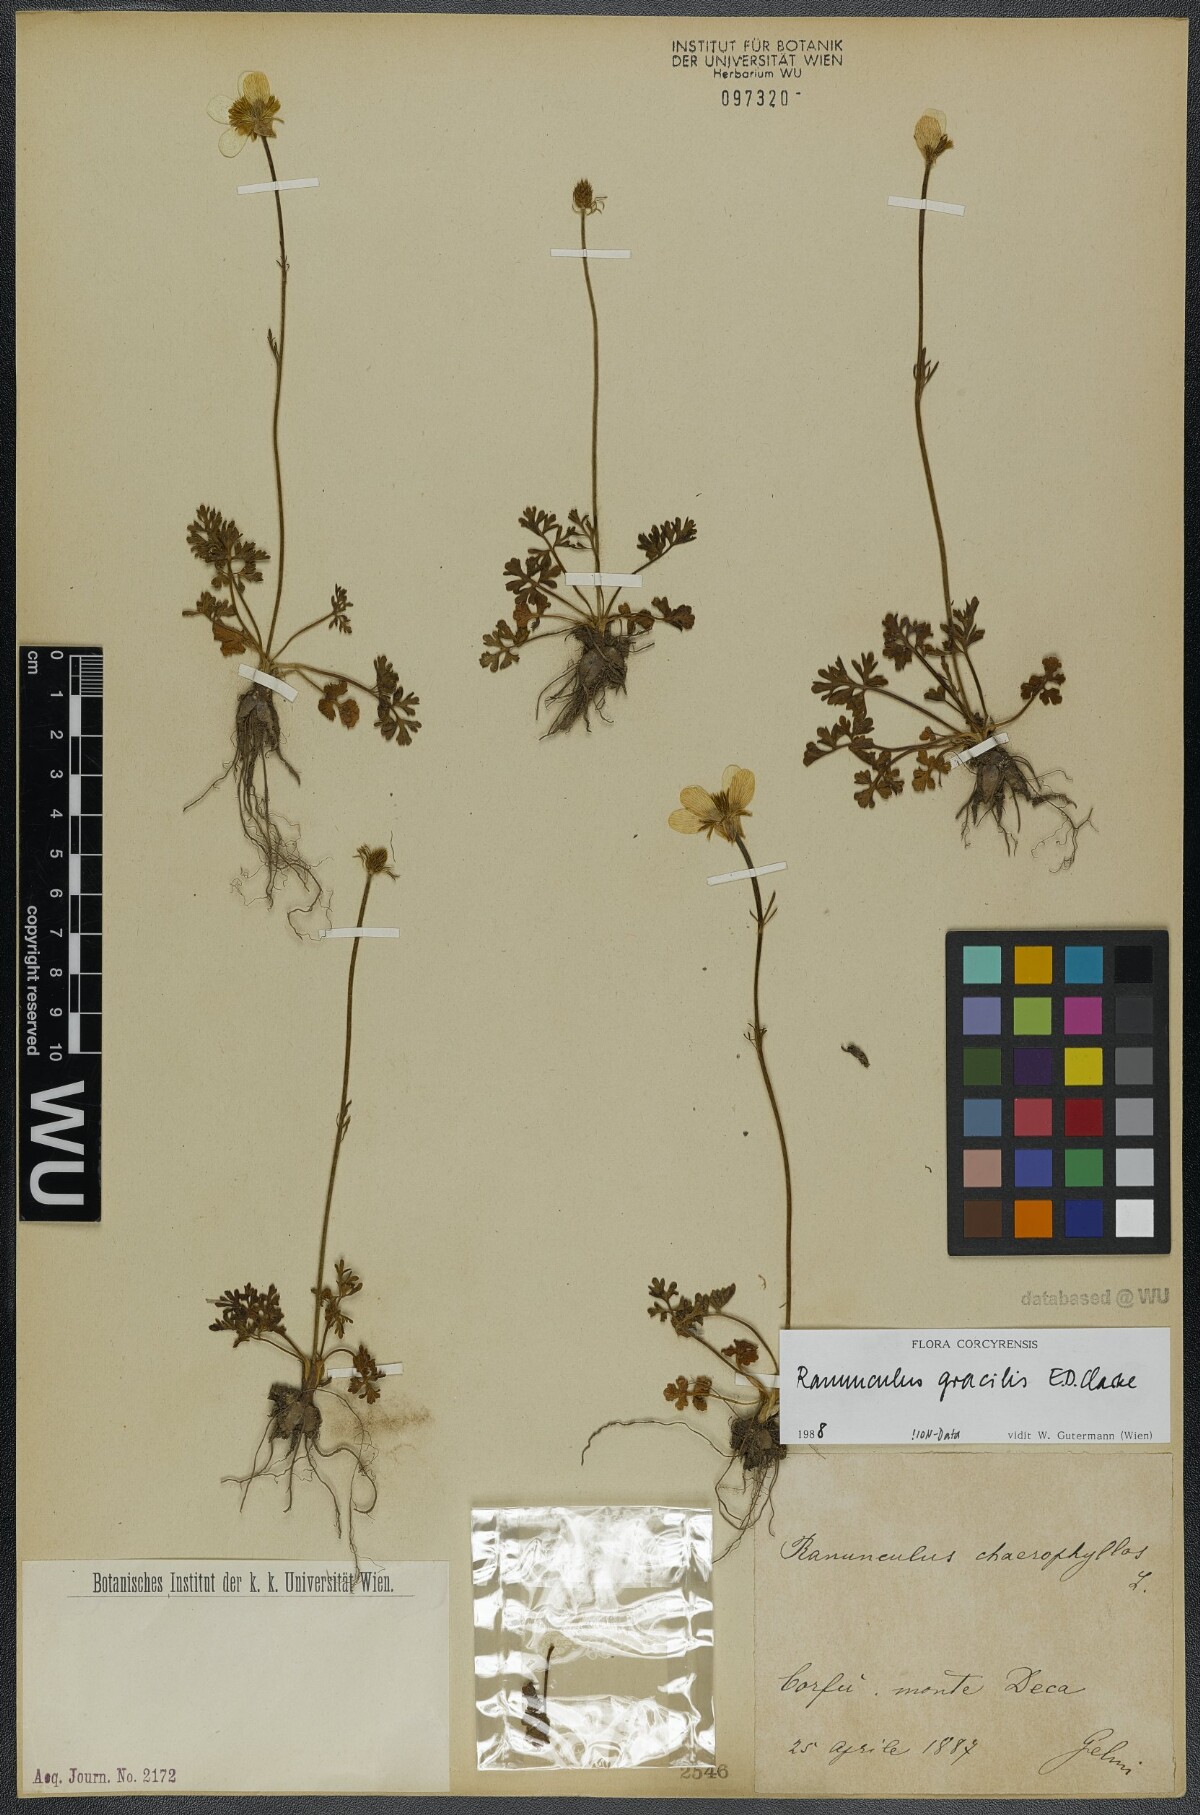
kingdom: Plantae
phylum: Tracheophyta
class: Magnoliopsida
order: Ranunculales
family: Ranunculaceae
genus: Ranunculus
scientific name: Ranunculus gracilis
